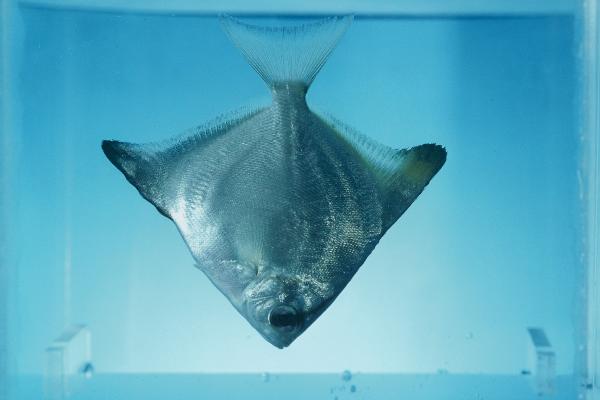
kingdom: Animalia
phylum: Chordata
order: Perciformes
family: Monodactylidae
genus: Monodactylus
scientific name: Monodactylus argenteus
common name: Silver moony
